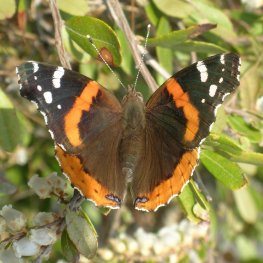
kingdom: Animalia
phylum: Arthropoda
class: Insecta
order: Lepidoptera
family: Nymphalidae
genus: Vanessa
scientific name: Vanessa atalanta
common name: Red Admiral
